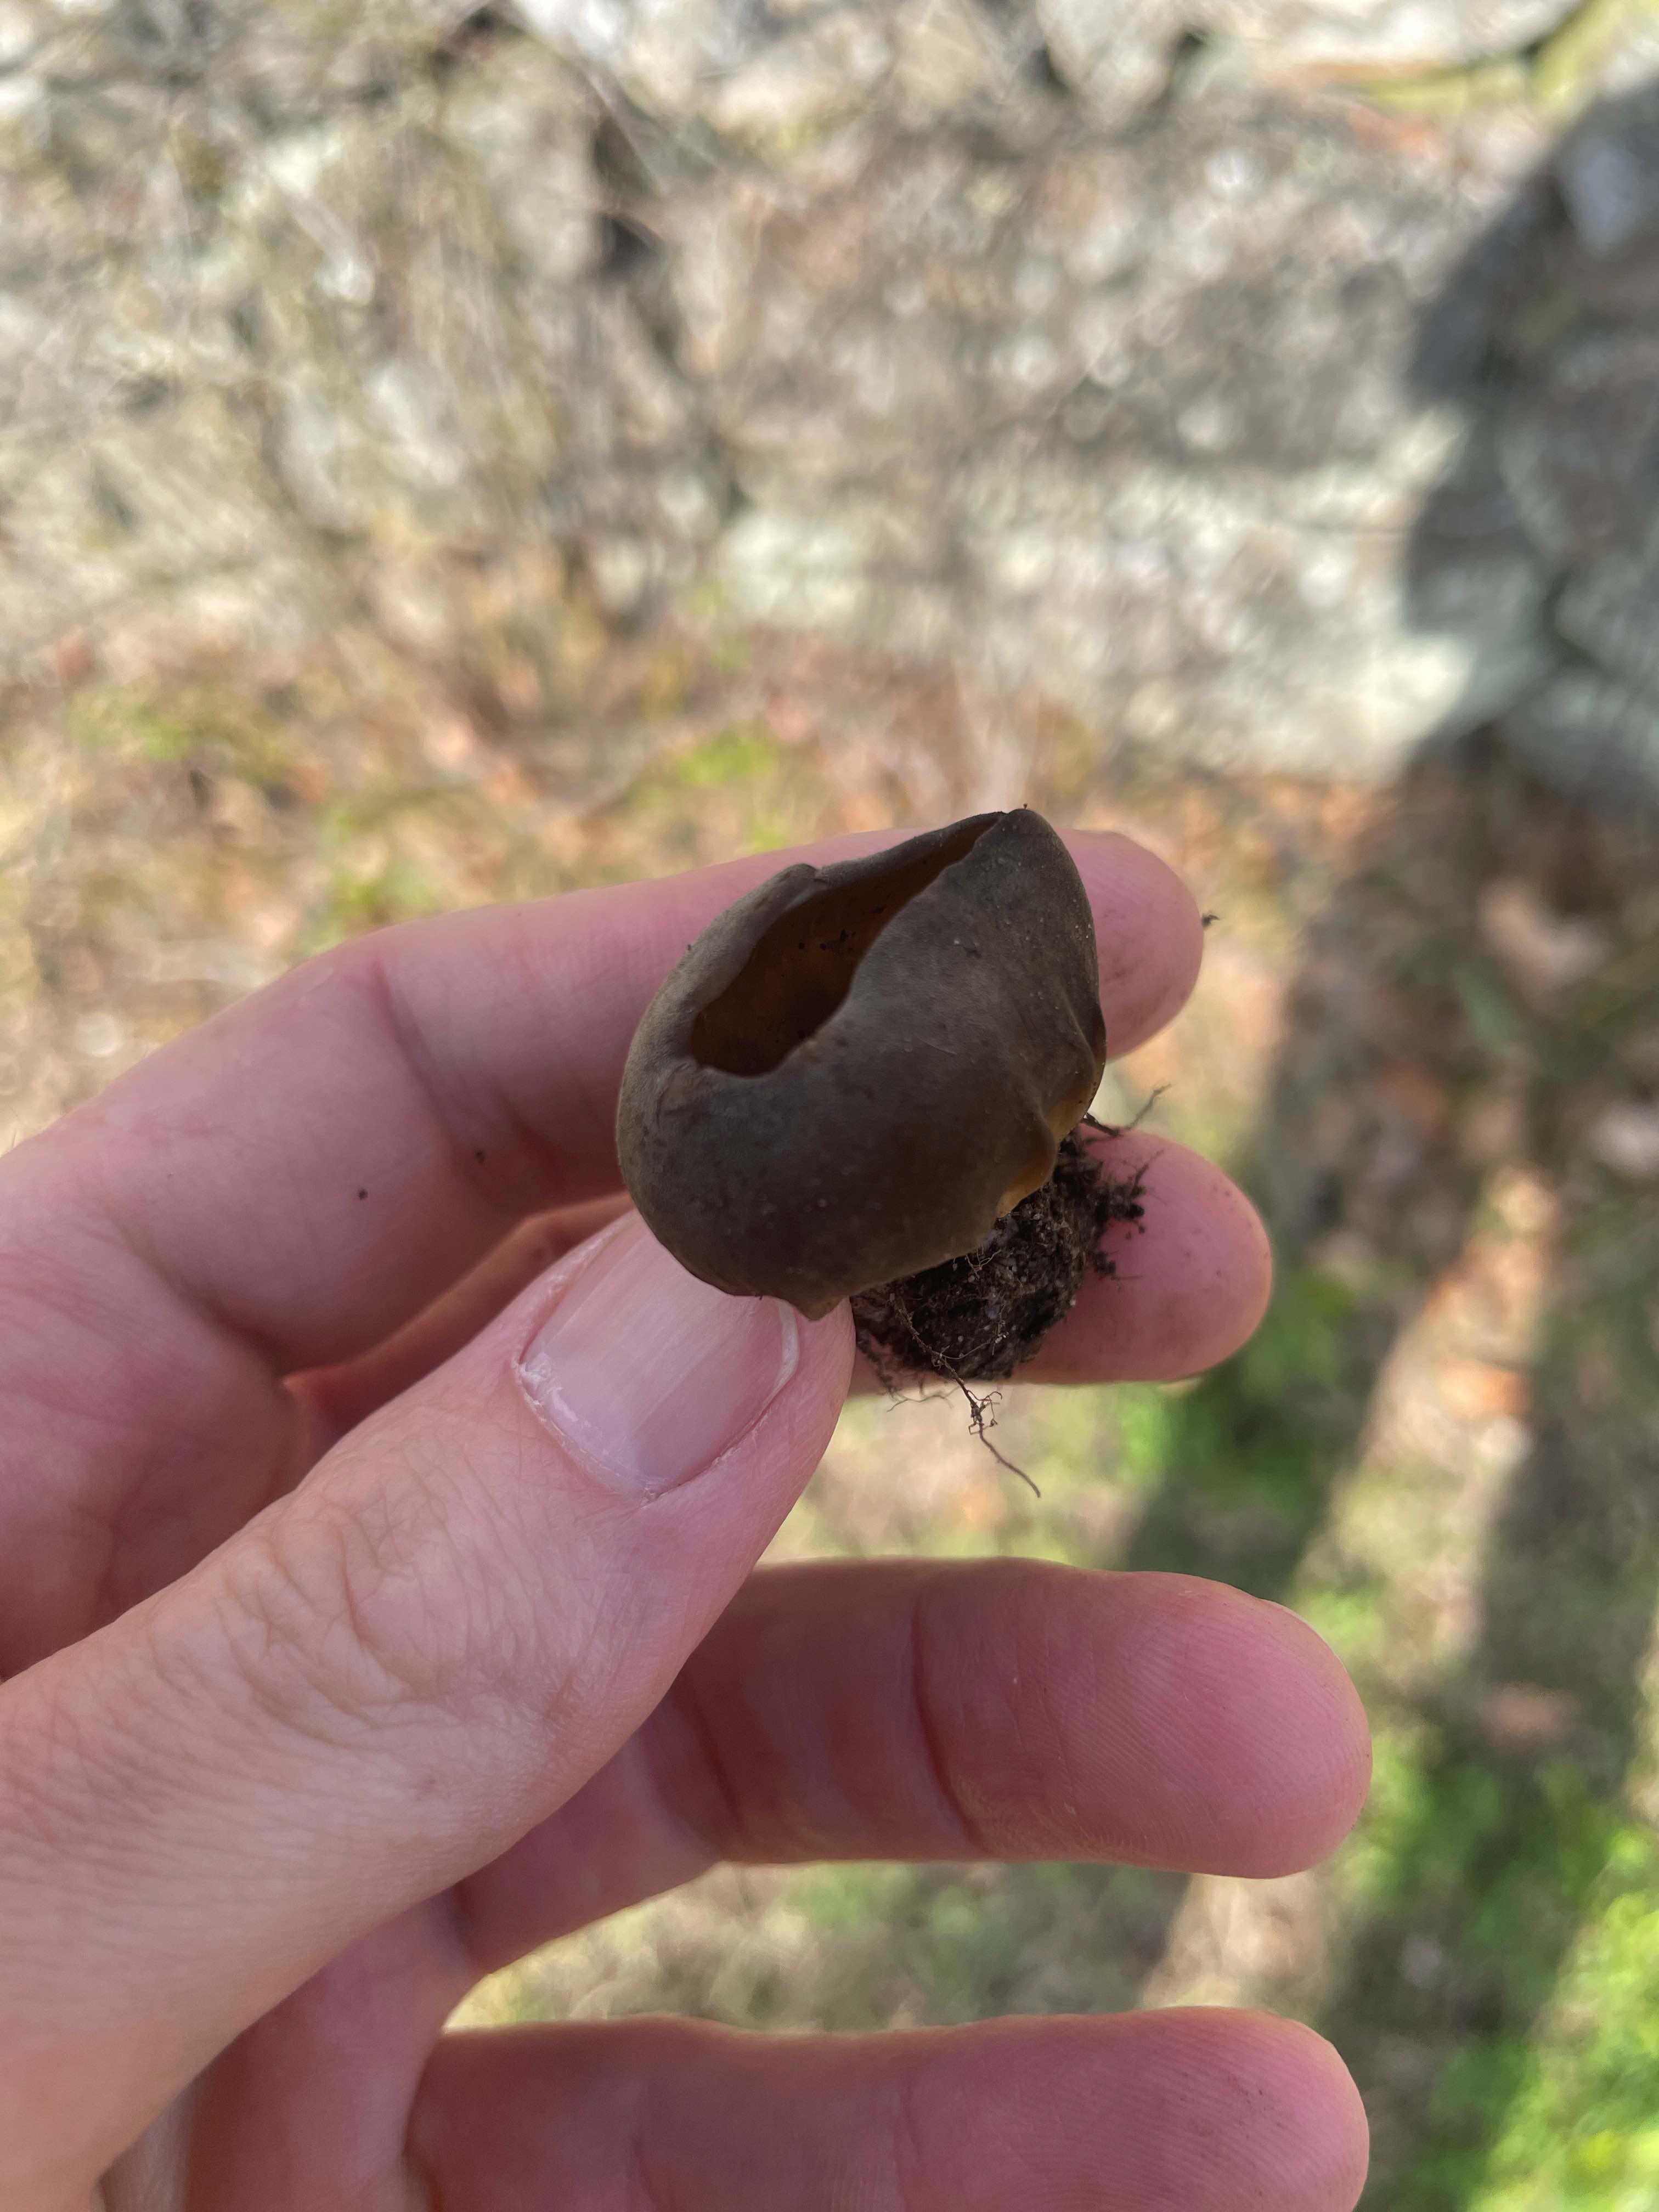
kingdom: Fungi
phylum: Ascomycota
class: Pezizomycetes
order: Pezizales
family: Helvellaceae
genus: Helvella
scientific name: Helvella acetabulum
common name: pokal-foldhat
